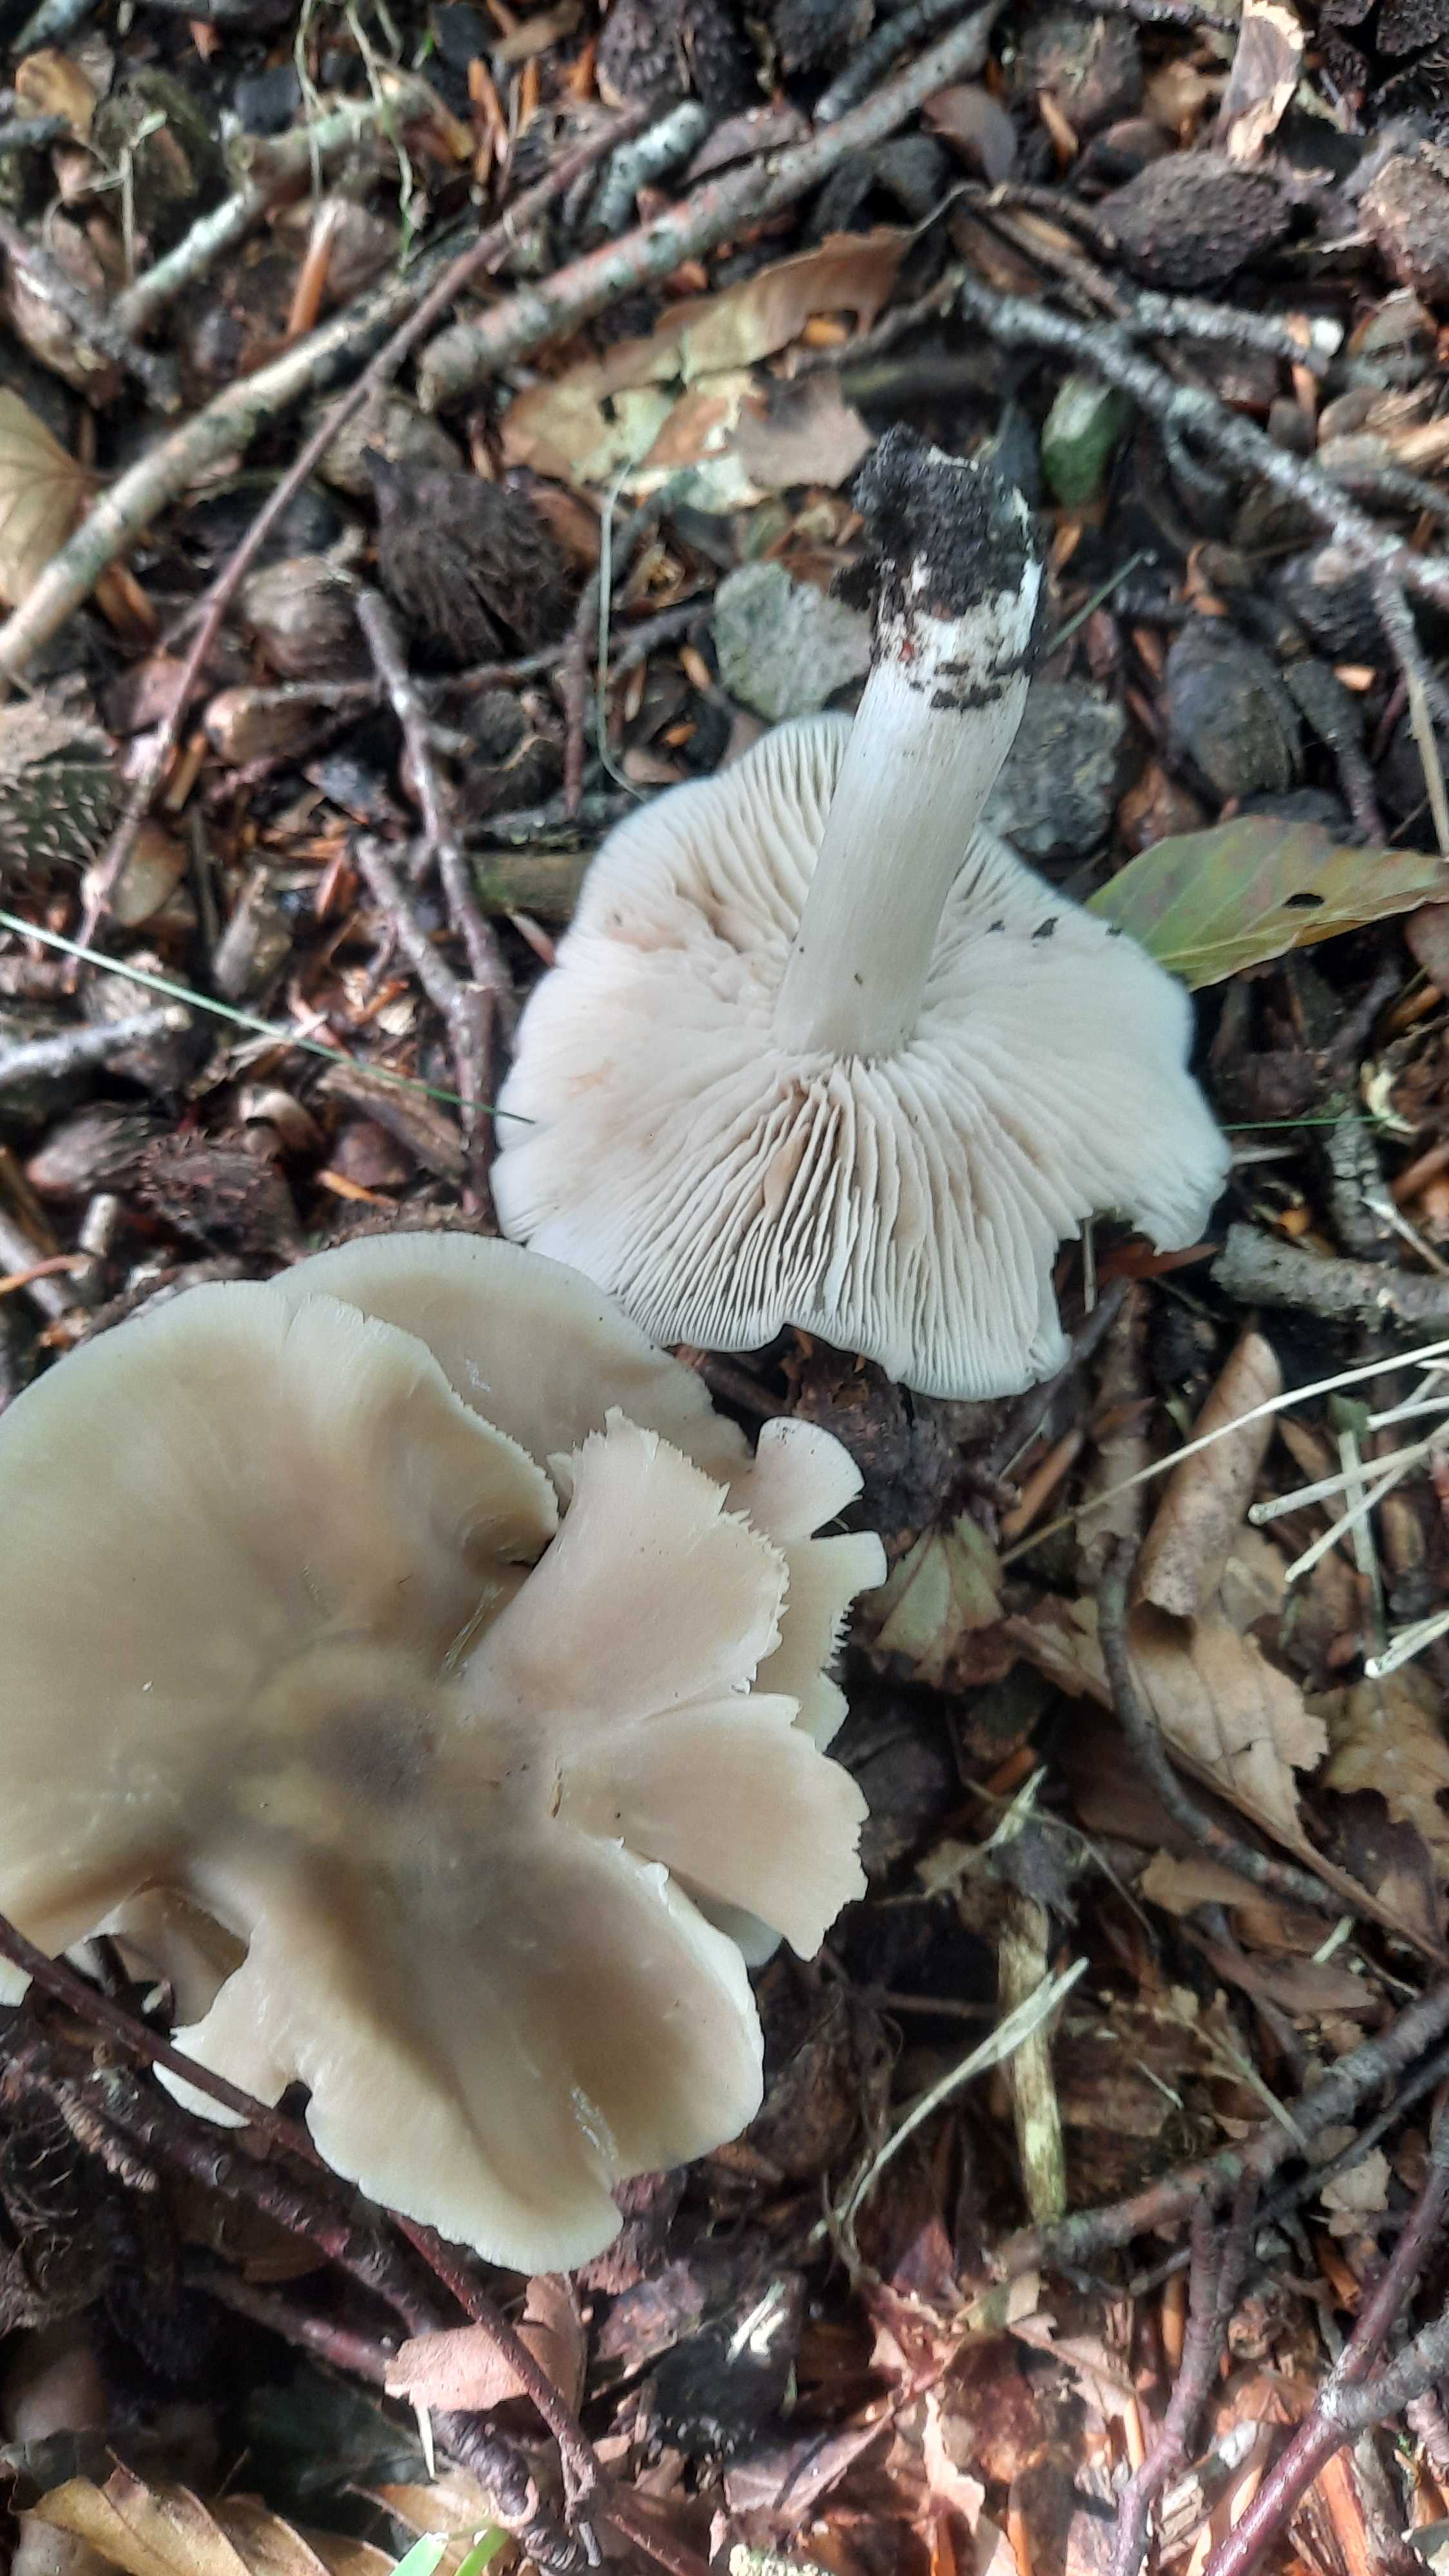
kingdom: Fungi
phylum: Basidiomycota
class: Agaricomycetes
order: Agaricales
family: Entolomataceae
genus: Entoloma
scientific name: Entoloma
